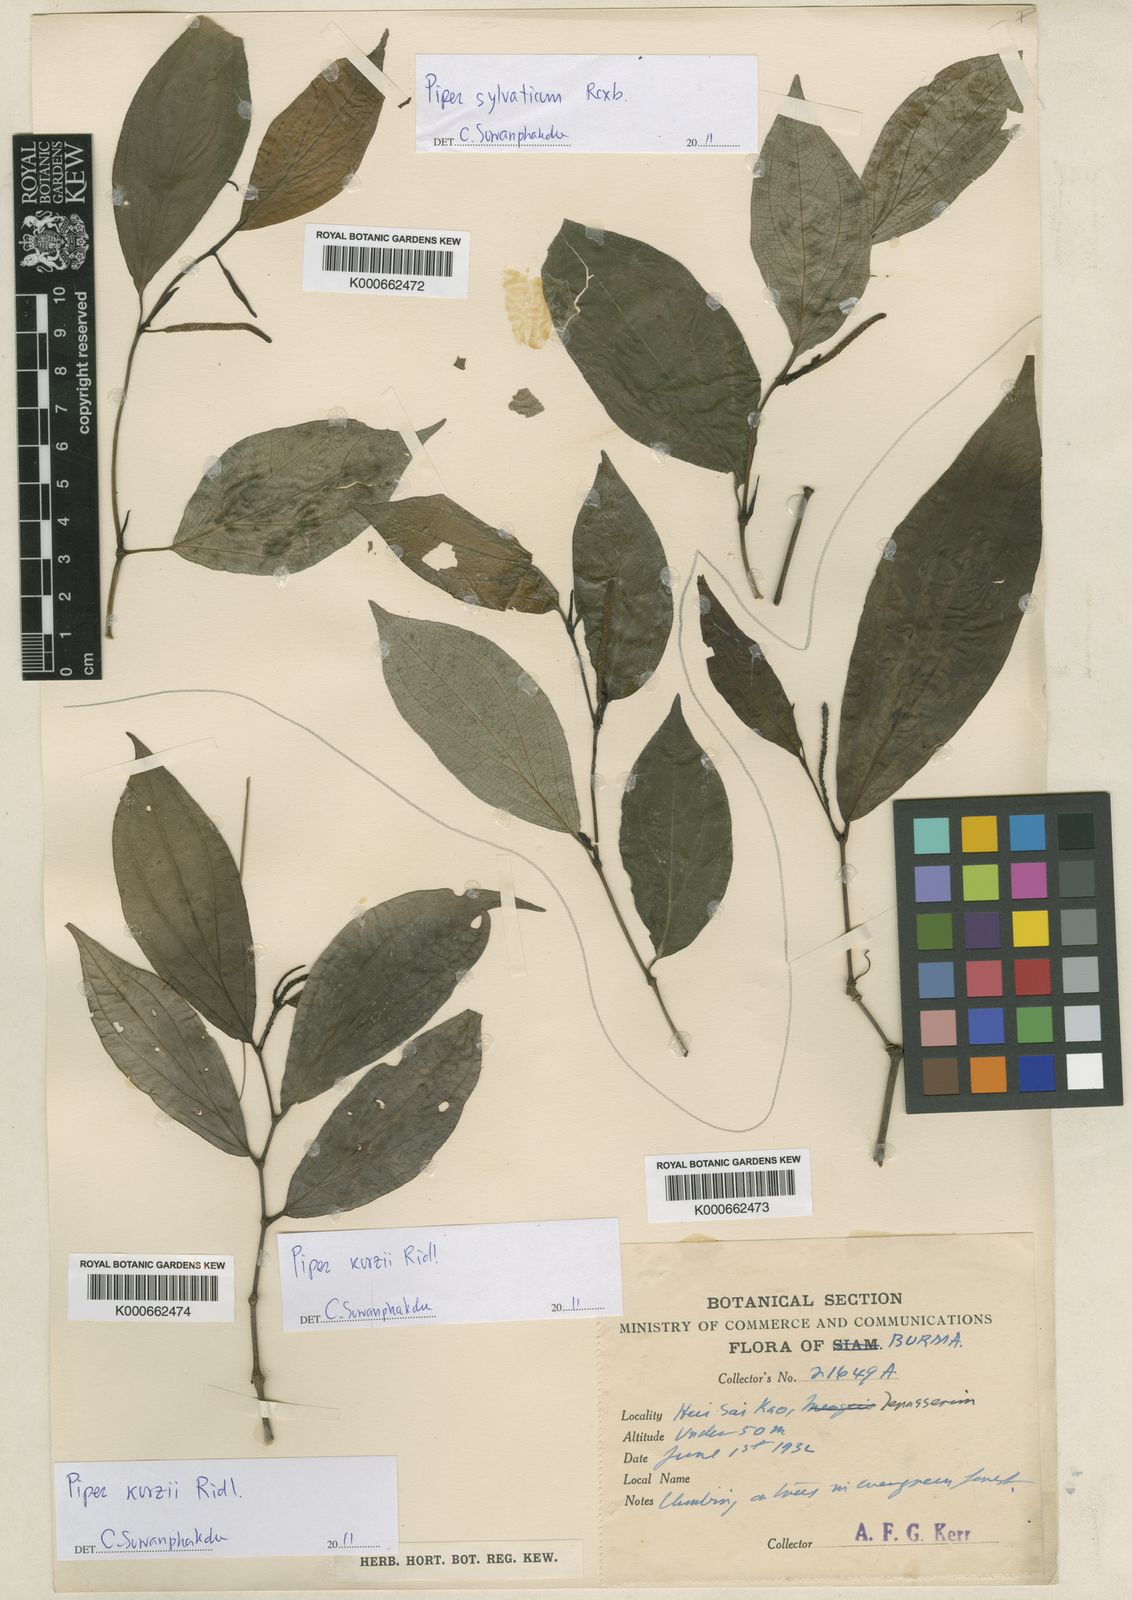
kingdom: Plantae
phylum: Tracheophyta
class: Magnoliopsida
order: Piperales
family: Piperaceae
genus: Piper
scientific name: Piper sylvaticum
